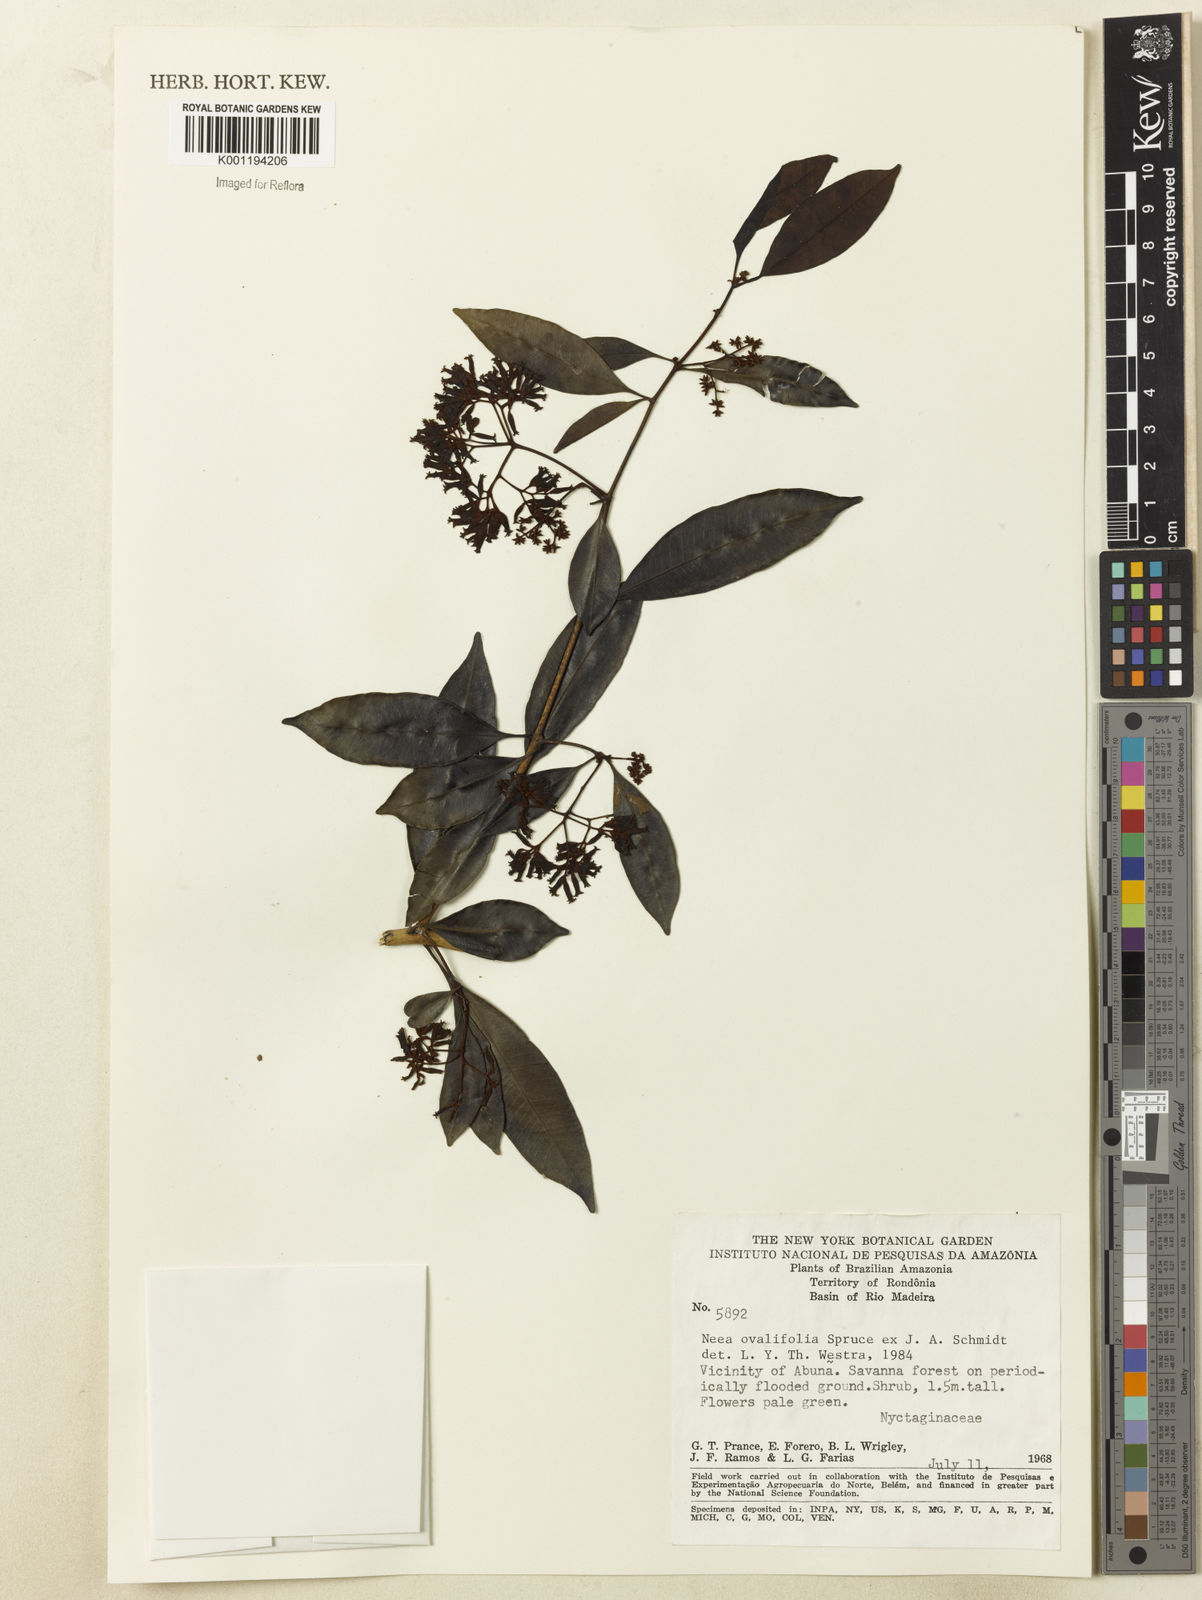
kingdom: Plantae
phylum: Tracheophyta
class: Magnoliopsida
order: Caryophyllales
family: Nyctaginaceae
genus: Neea
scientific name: Neea ovalifolia
